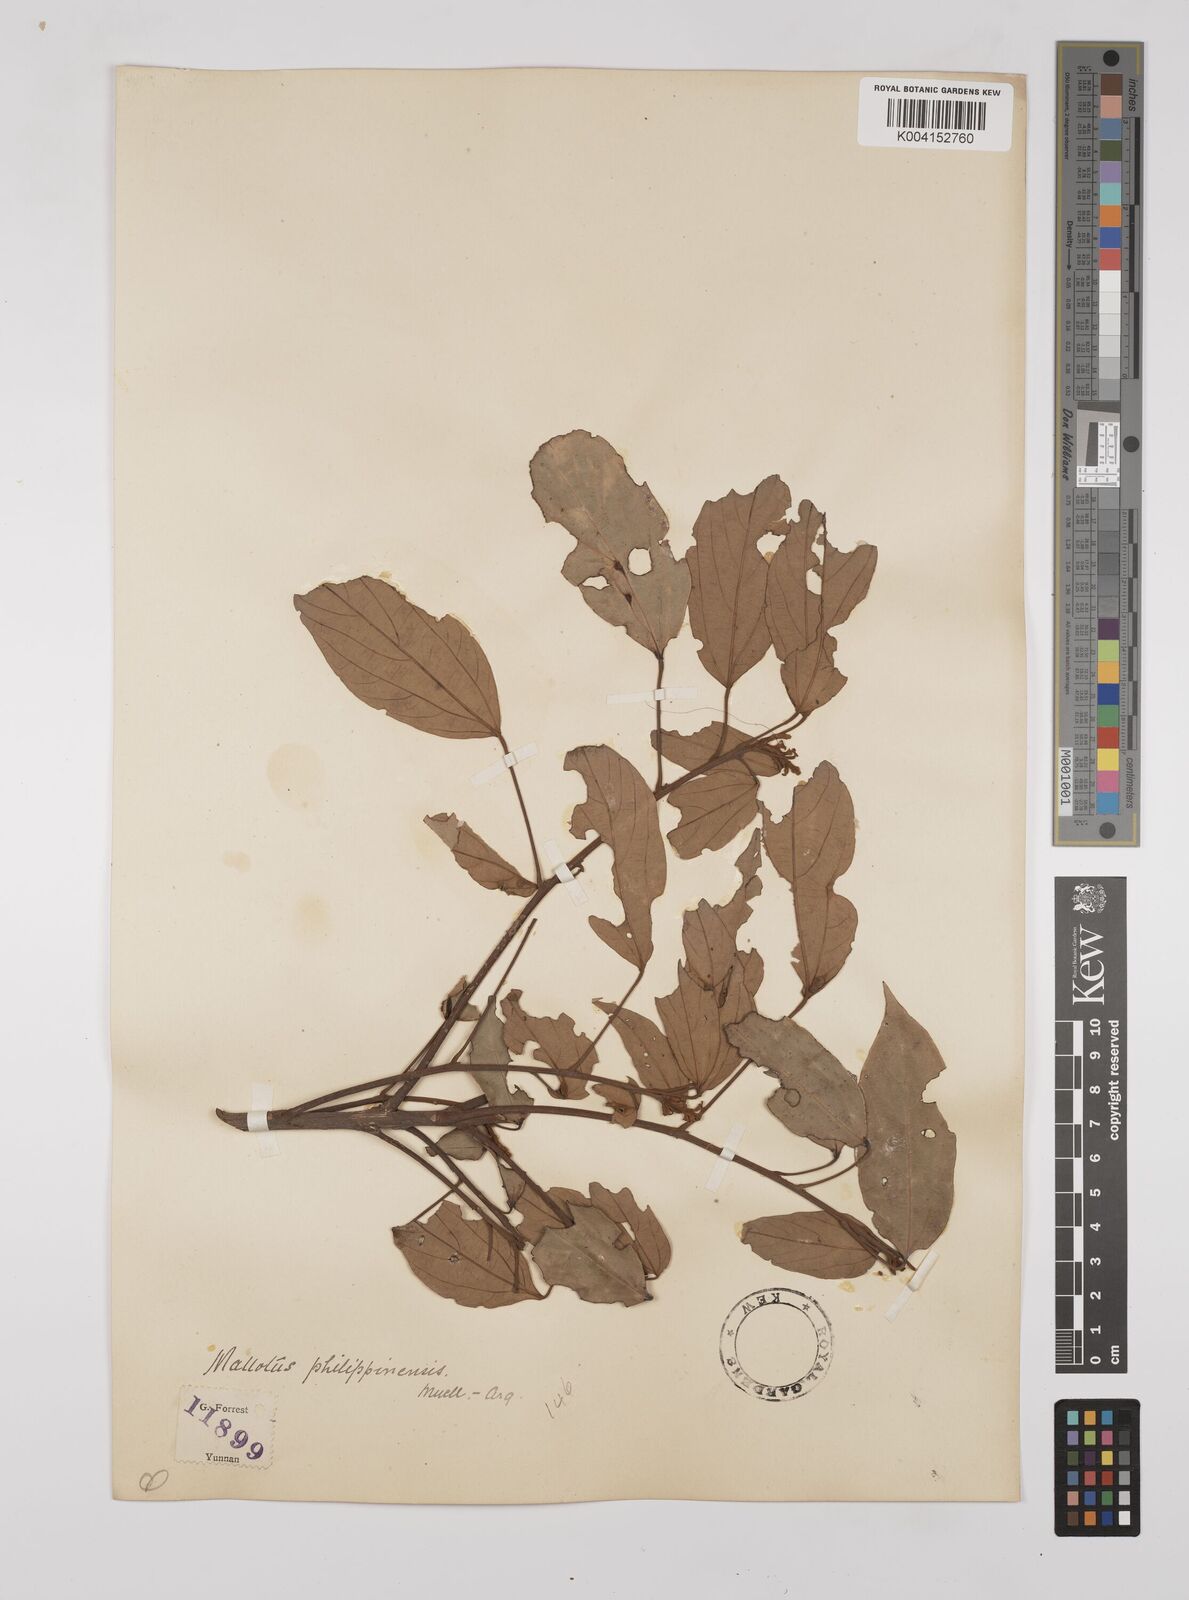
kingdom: Plantae
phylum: Tracheophyta
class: Magnoliopsida
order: Malpighiales
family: Euphorbiaceae
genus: Mallotus
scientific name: Mallotus philippensis
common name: Kamala tree
